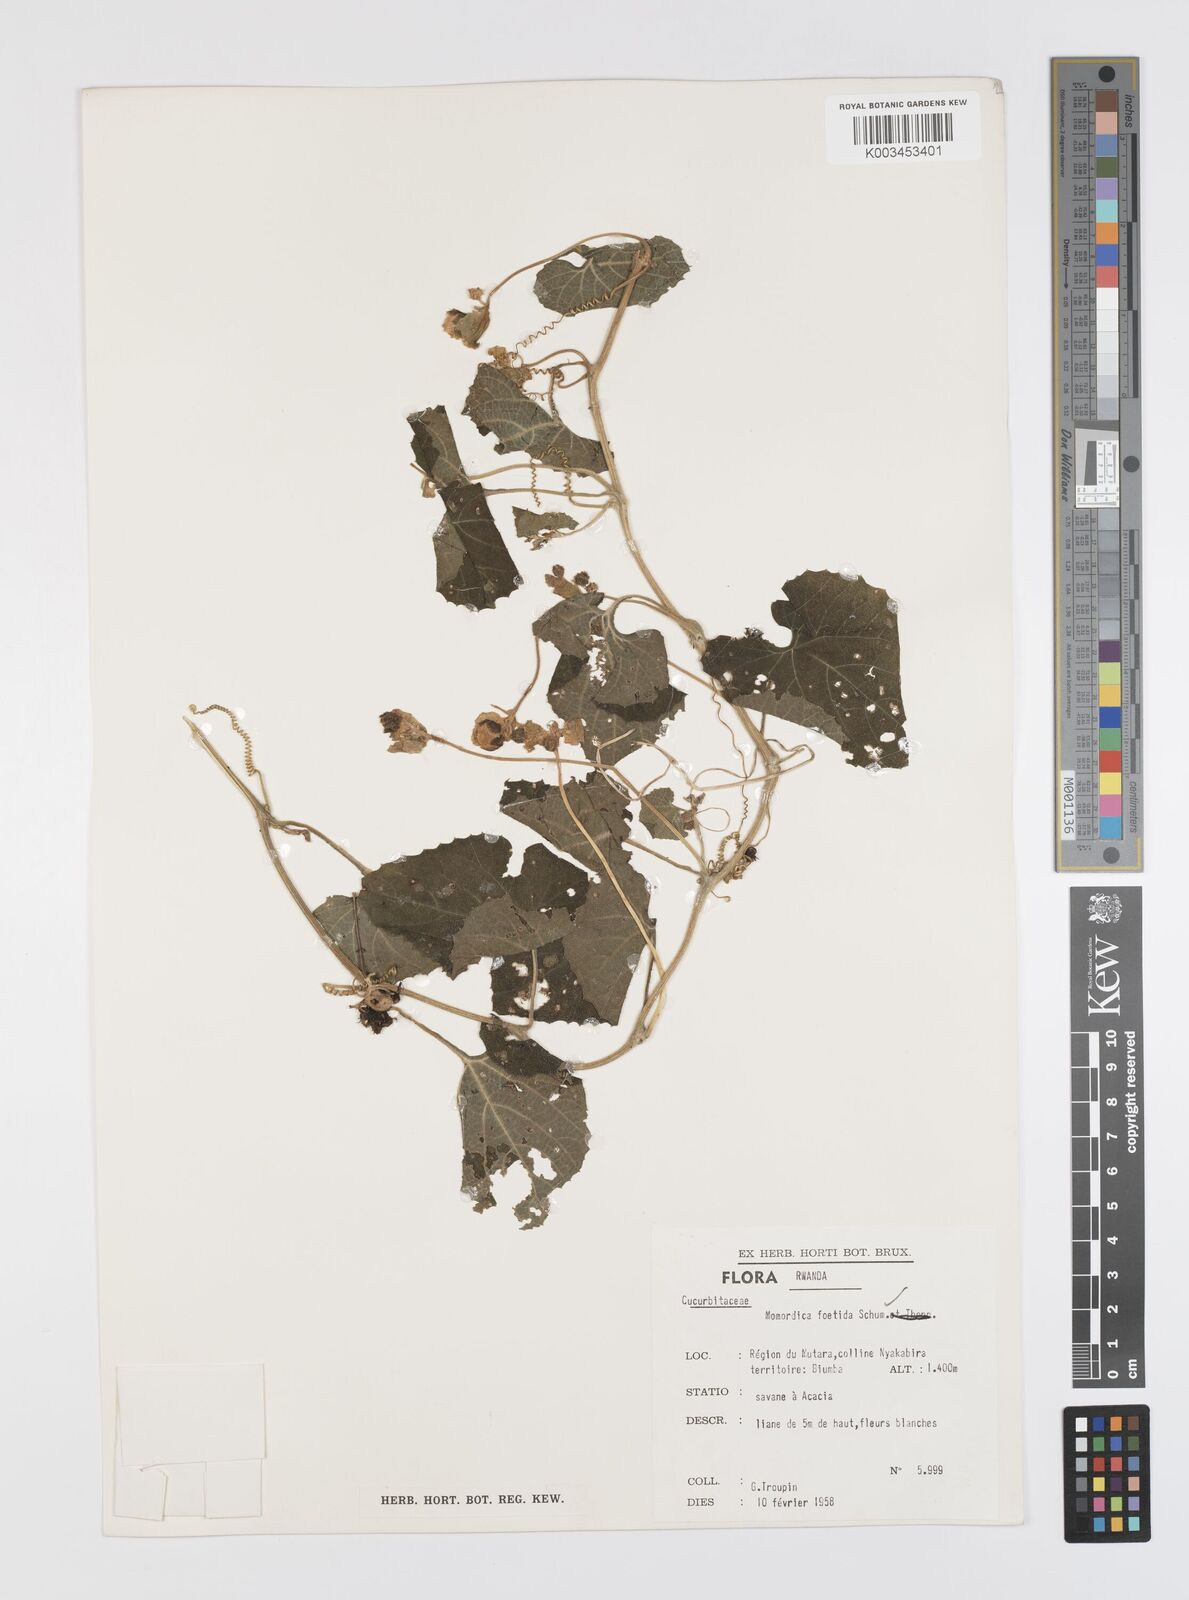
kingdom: Plantae
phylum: Tracheophyta
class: Magnoliopsida
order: Cucurbitales
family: Cucurbitaceae
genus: Momordica
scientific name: Momordica foetida
